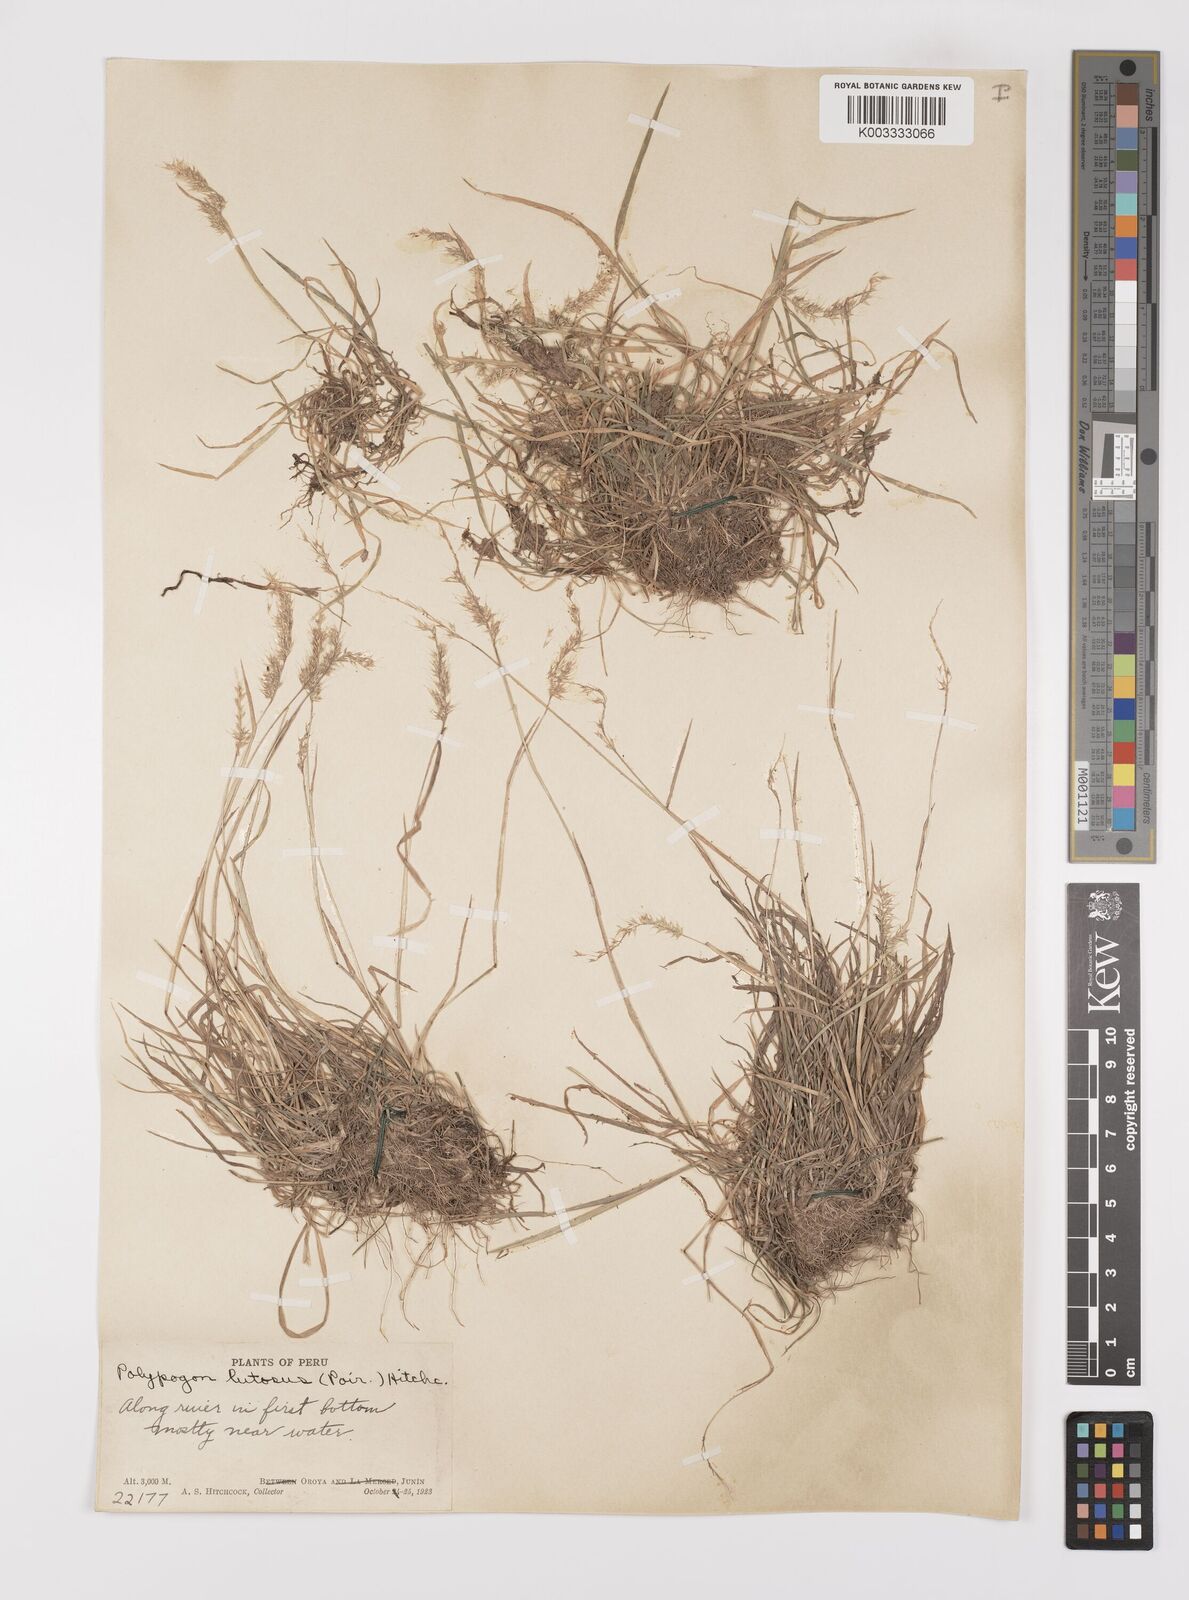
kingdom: Plantae
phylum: Tracheophyta
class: Liliopsida
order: Poales
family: Poaceae
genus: Polypogon
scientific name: Polypogon interruptus
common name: Ditch polypogon
